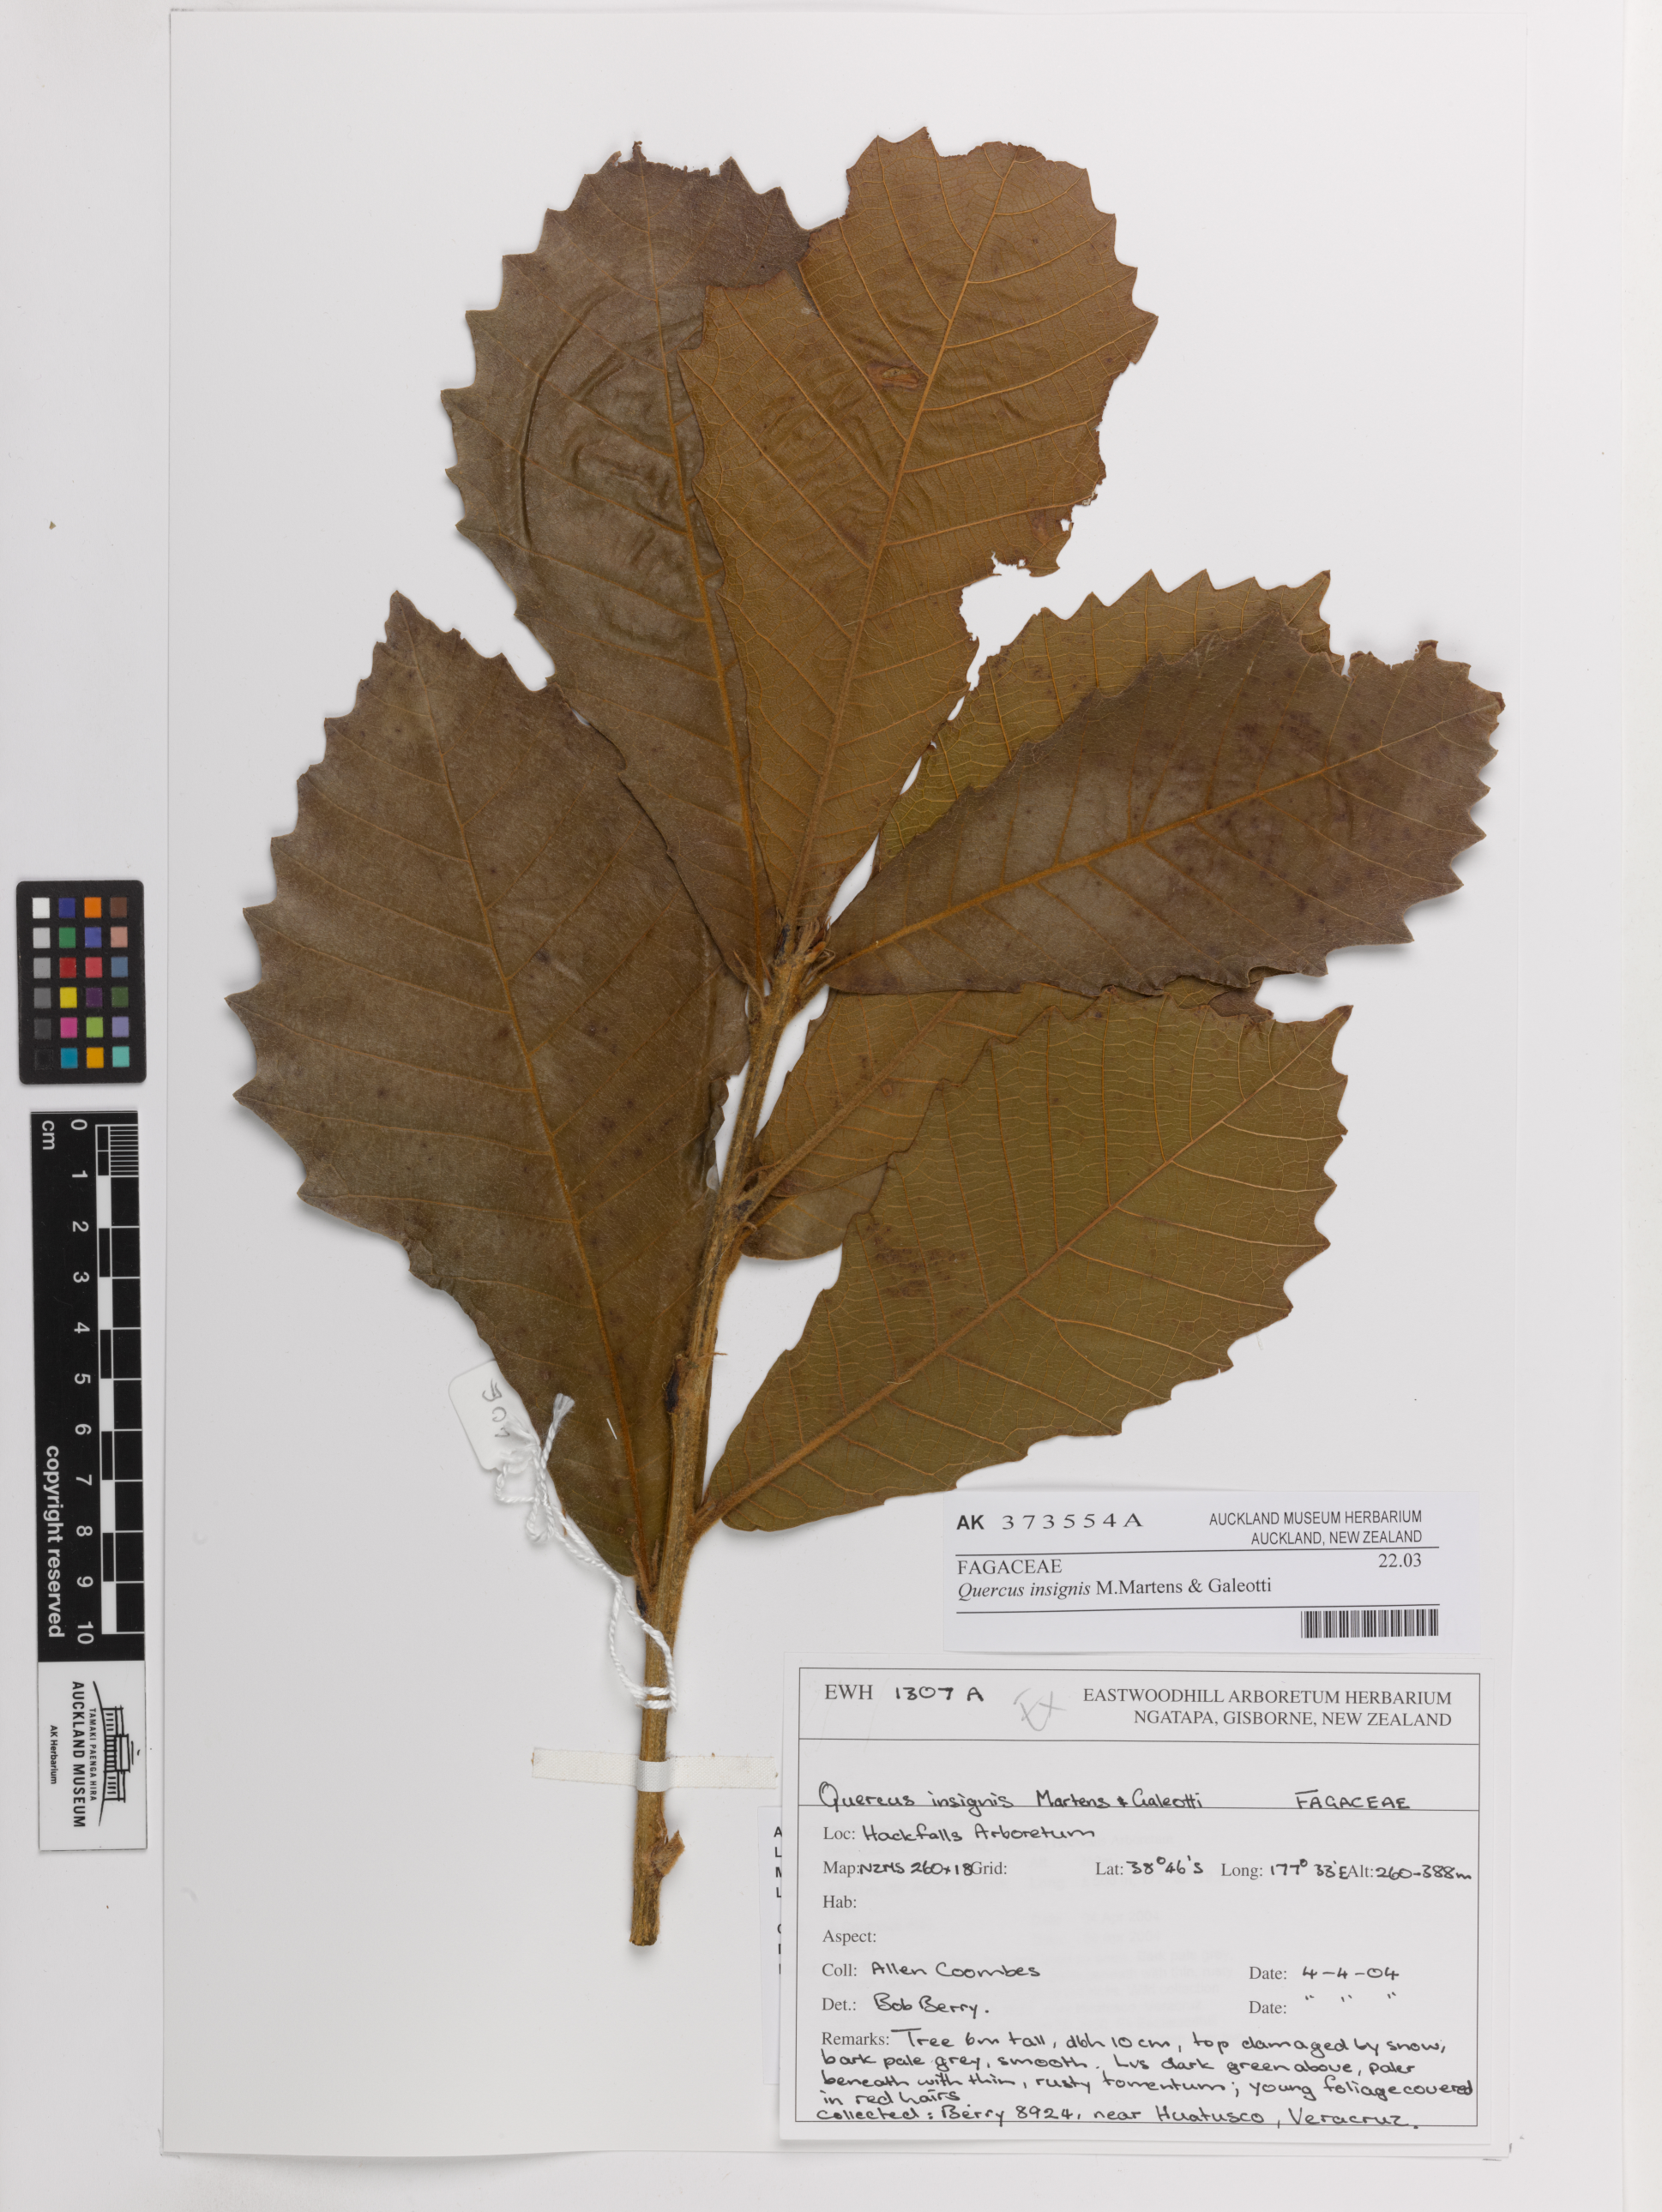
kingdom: Plantae
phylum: Tracheophyta
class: Magnoliopsida
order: Fagales
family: Fagaceae
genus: Quercus
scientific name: Quercus insignis
